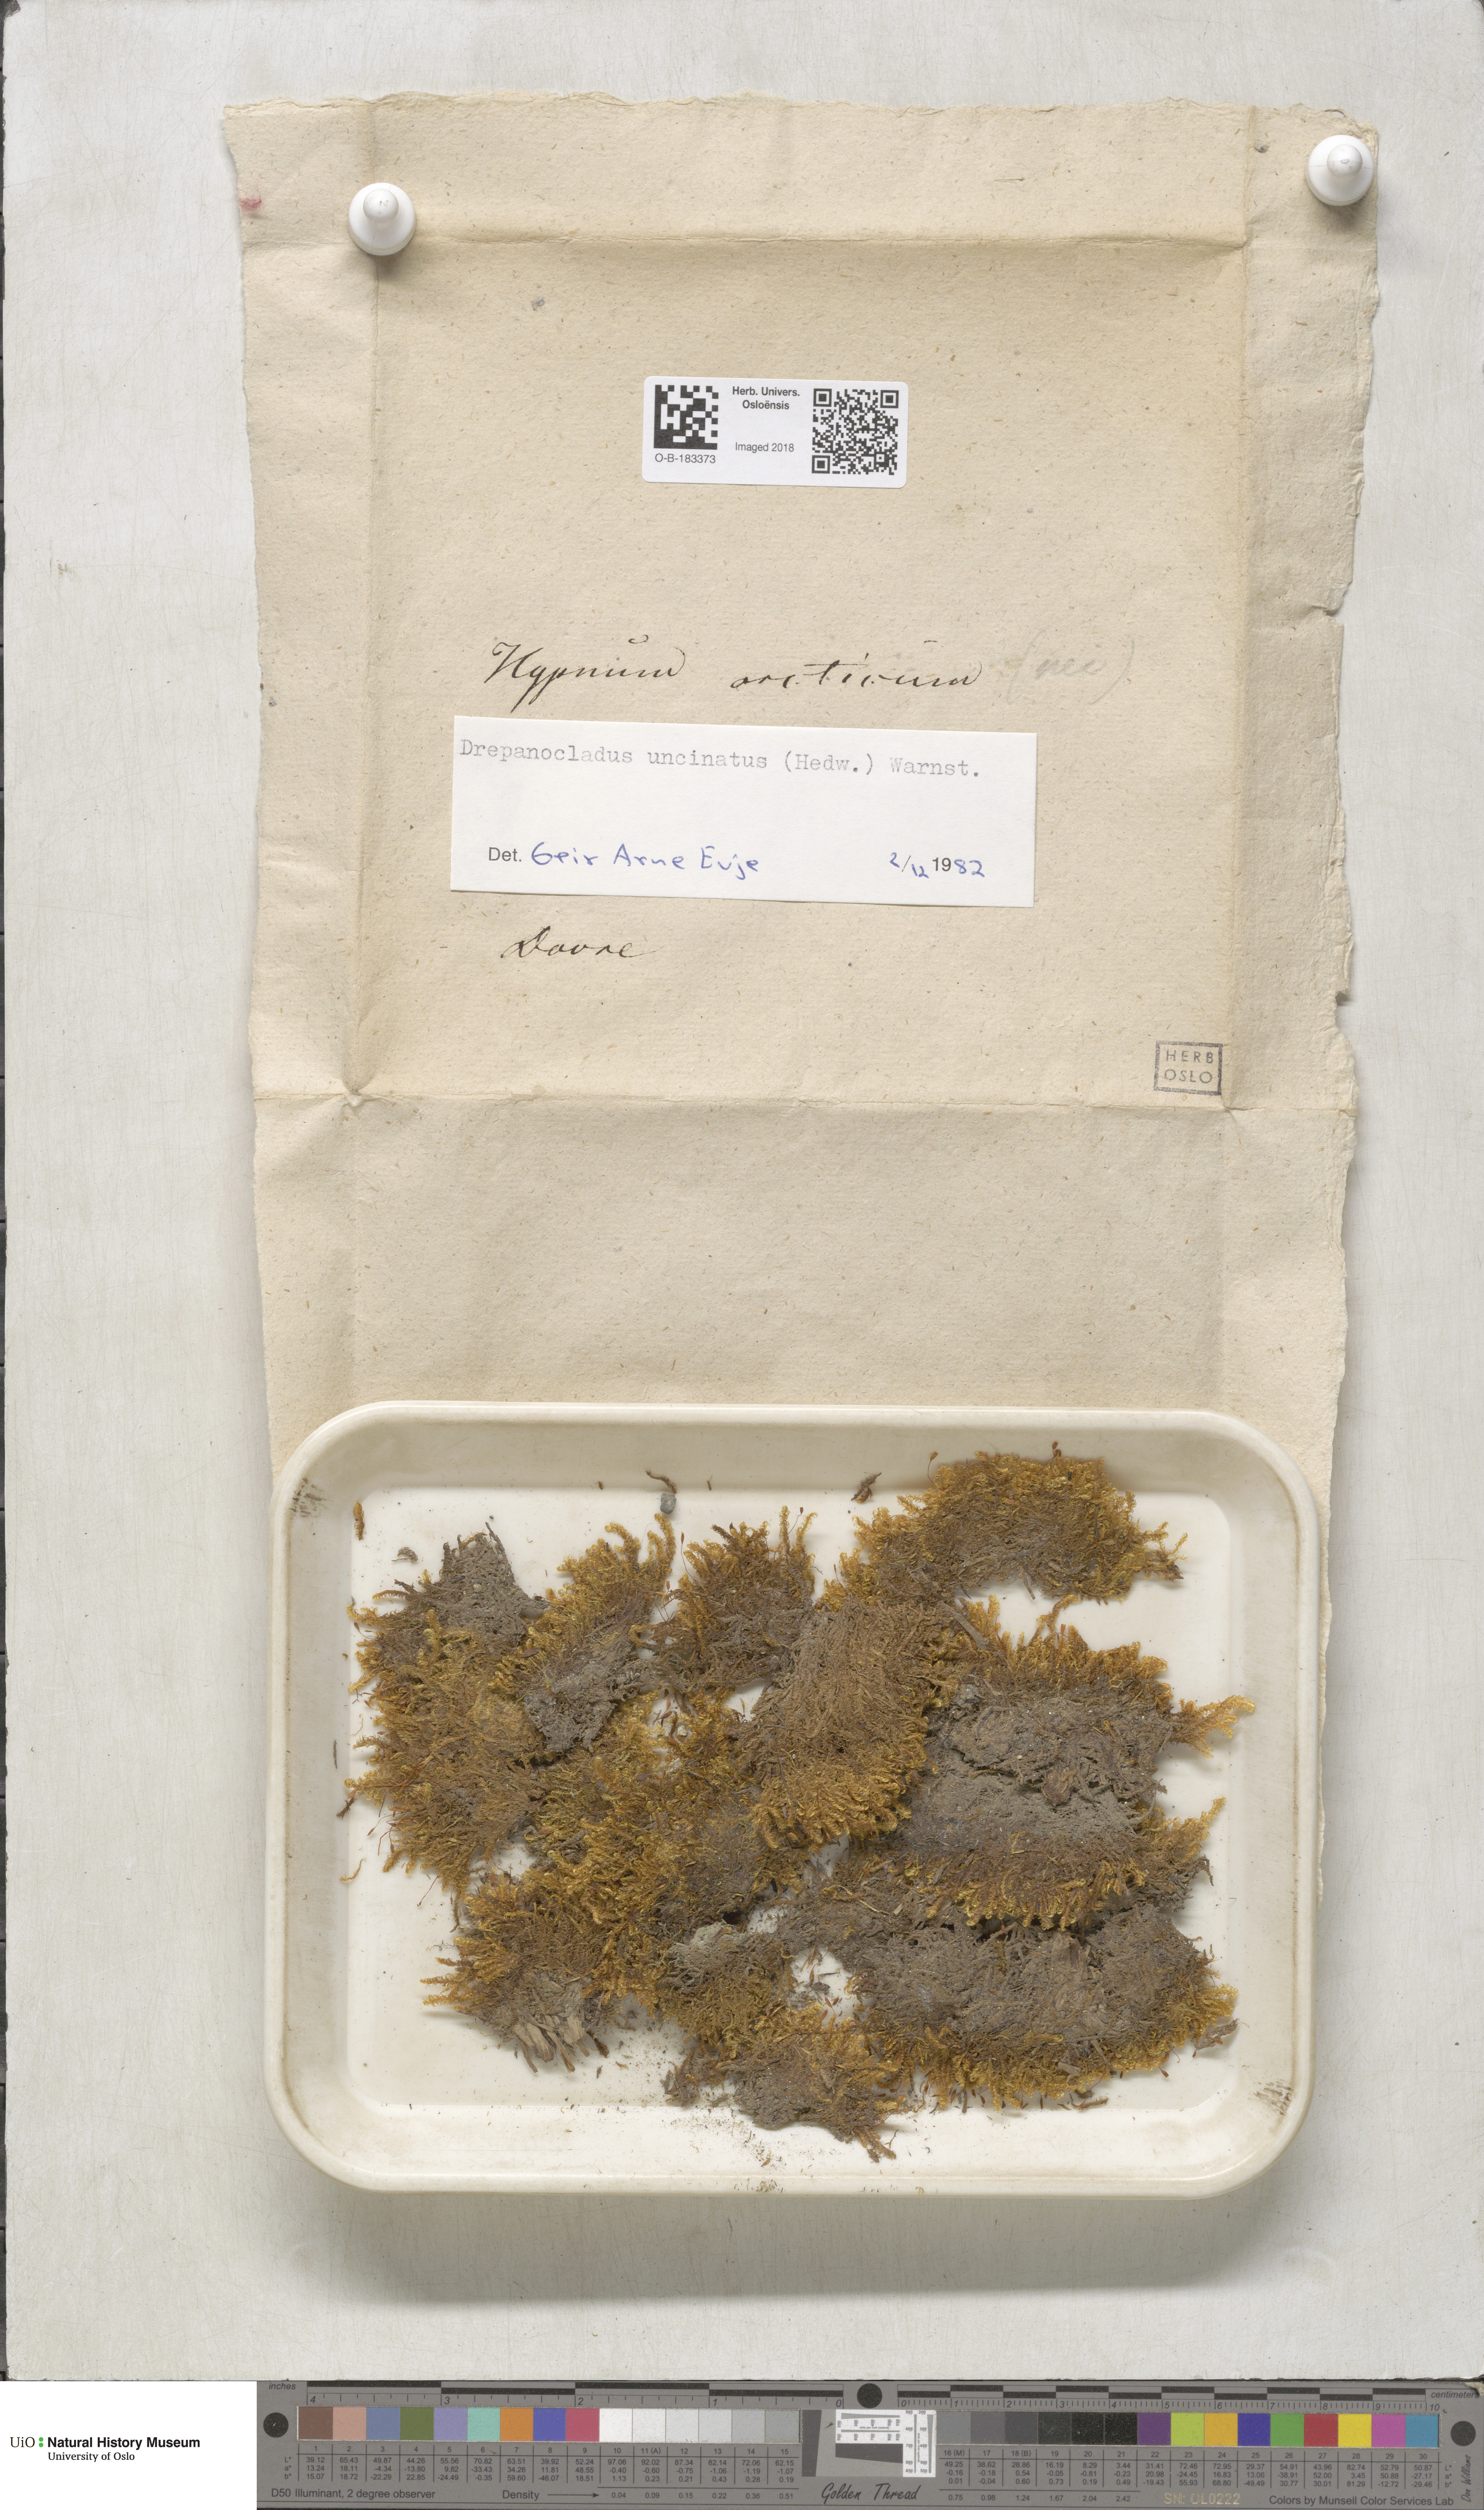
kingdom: Plantae
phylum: Bryophyta
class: Bryopsida
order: Hypnales
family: Scorpidiaceae
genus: Sanionia
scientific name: Sanionia uncinata
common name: Sickle moss
